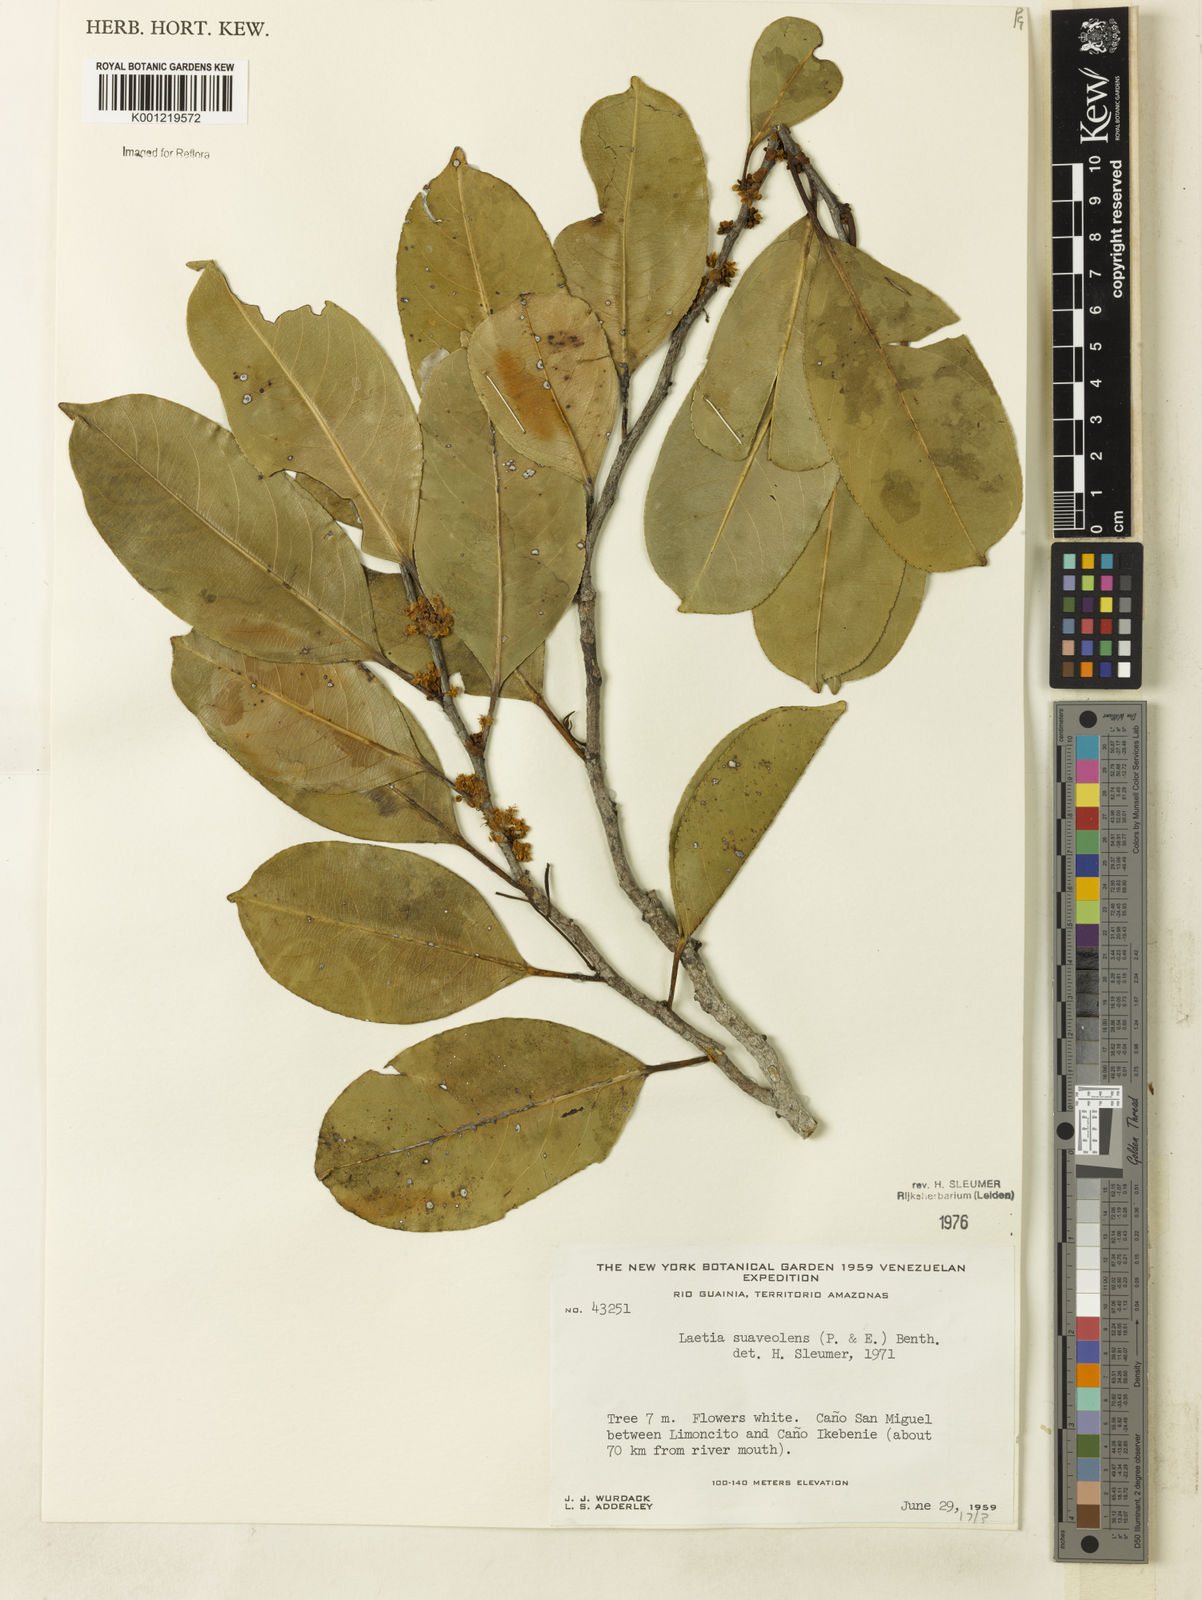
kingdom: Plantae
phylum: Tracheophyta
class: Magnoliopsida
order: Malpighiales
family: Salicaceae
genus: Casearia
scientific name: Casearia suaveolens
